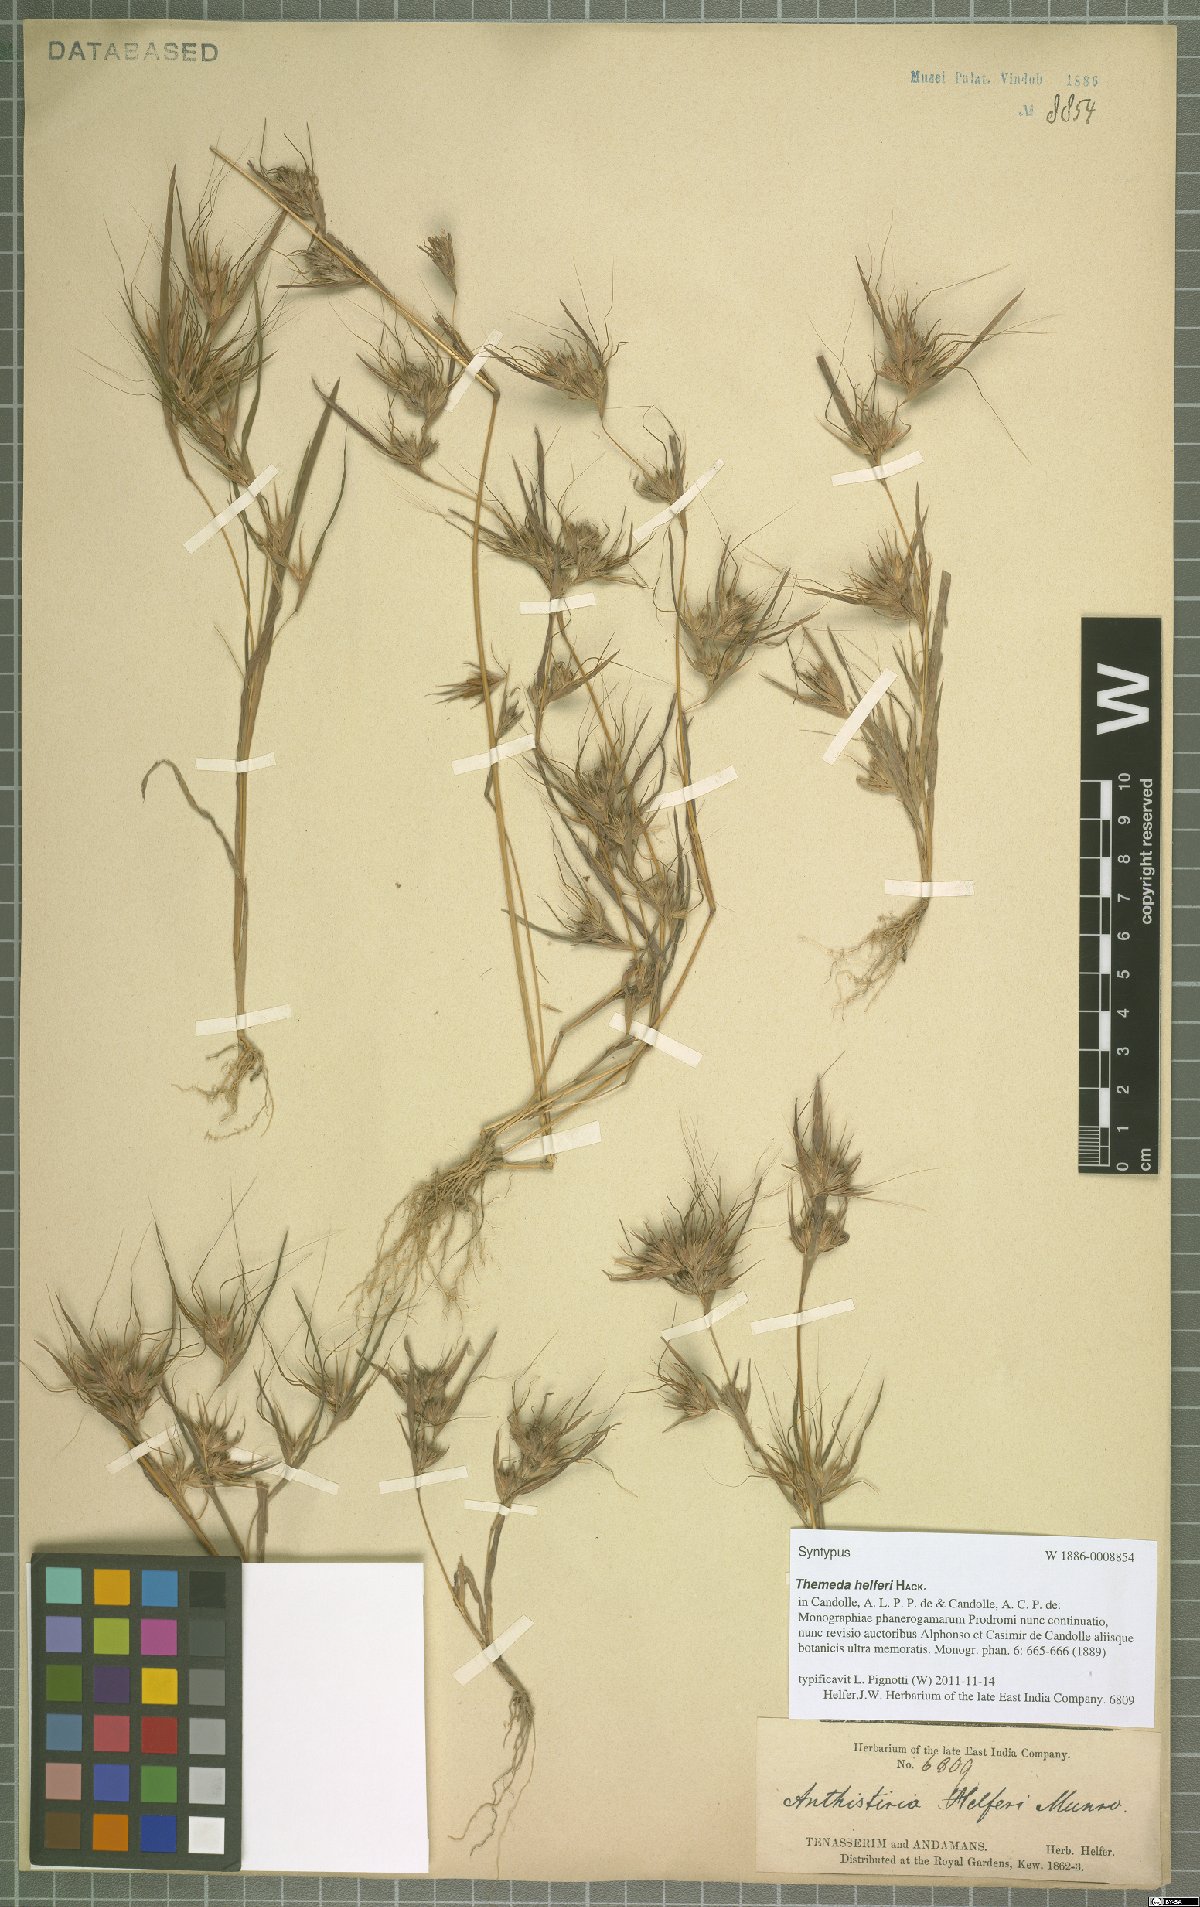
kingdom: Plantae
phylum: Tracheophyta
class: Liliopsida
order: Poales
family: Poaceae
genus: Themeda
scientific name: Themeda helferi
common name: Kangaroo grass
